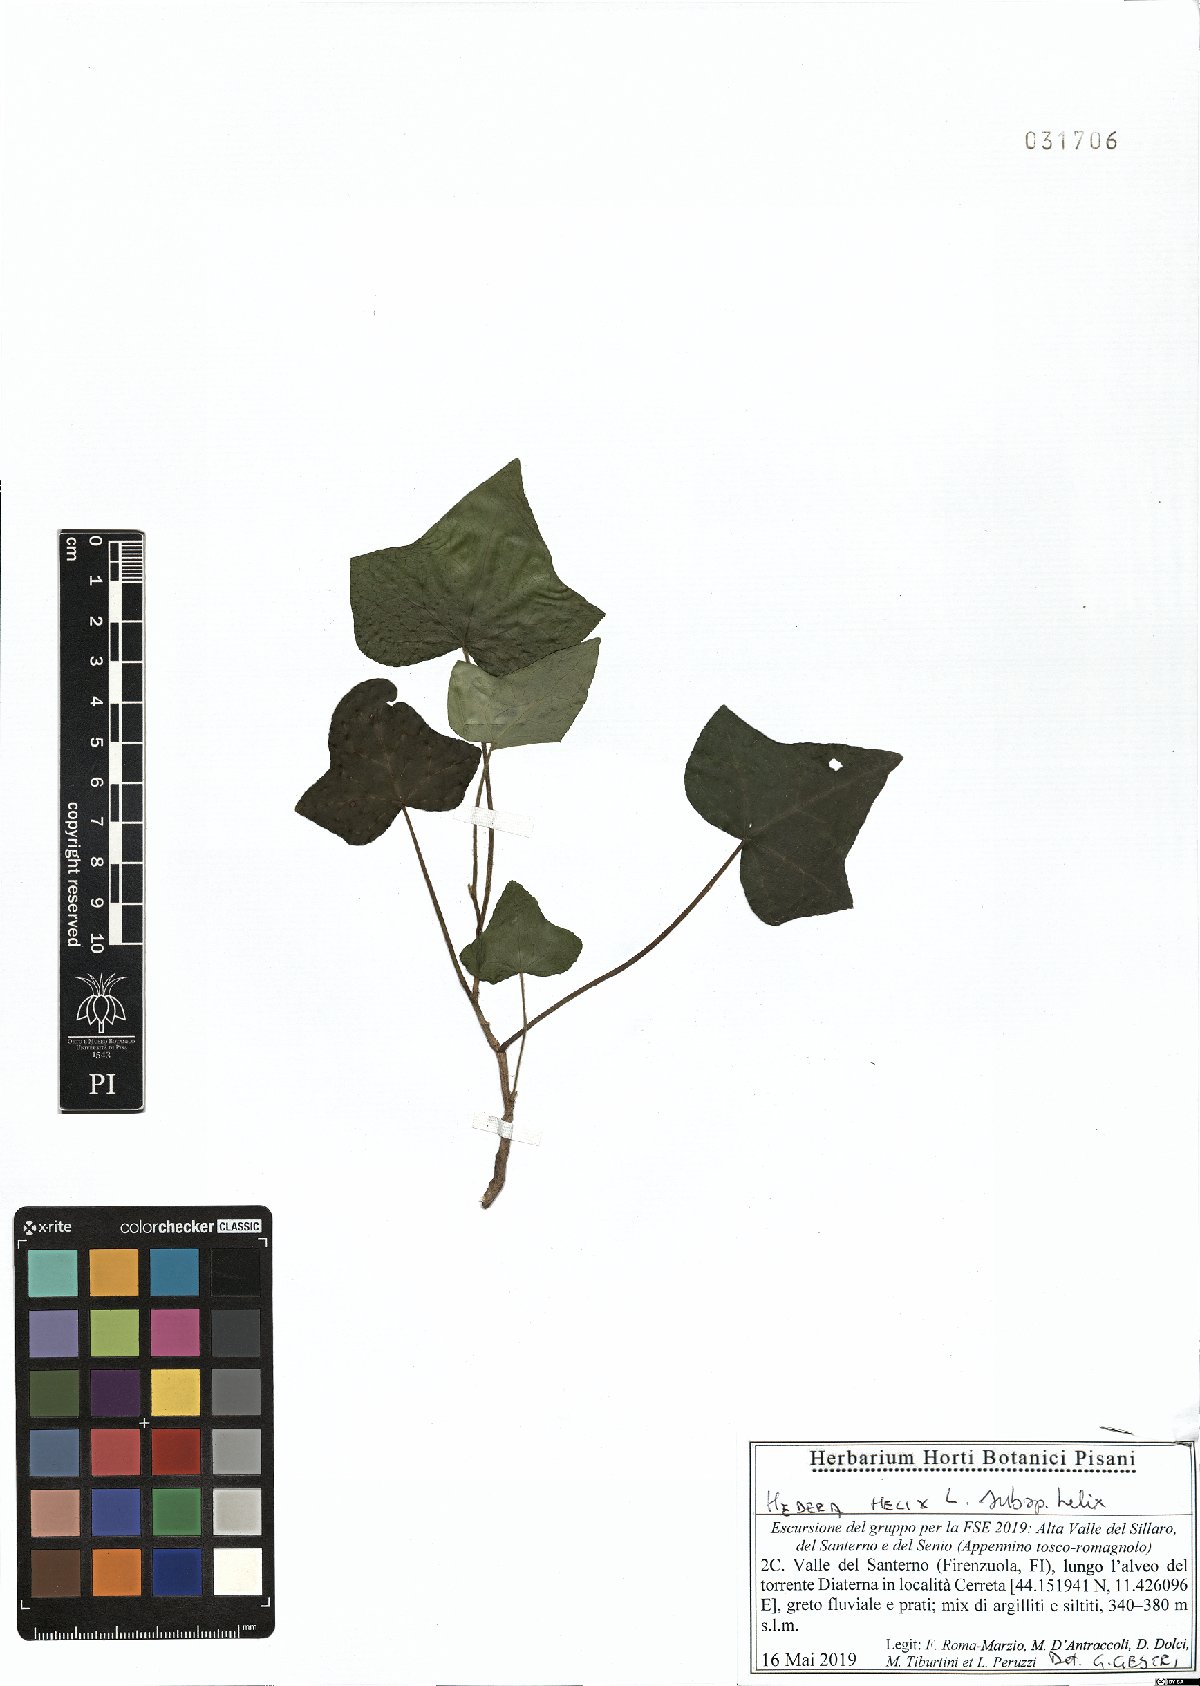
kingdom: Plantae
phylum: Tracheophyta
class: Magnoliopsida
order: Apiales
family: Araliaceae
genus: Hedera
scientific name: Hedera helix
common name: Ivy
